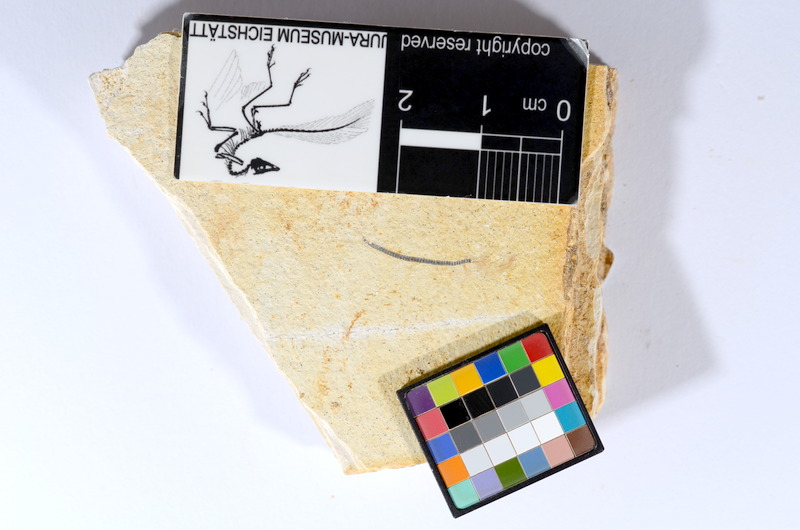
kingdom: Animalia
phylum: Chordata
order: Salmoniformes
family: Orthogonikleithridae
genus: Orthogonikleithrus
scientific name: Orthogonikleithrus hoelli
